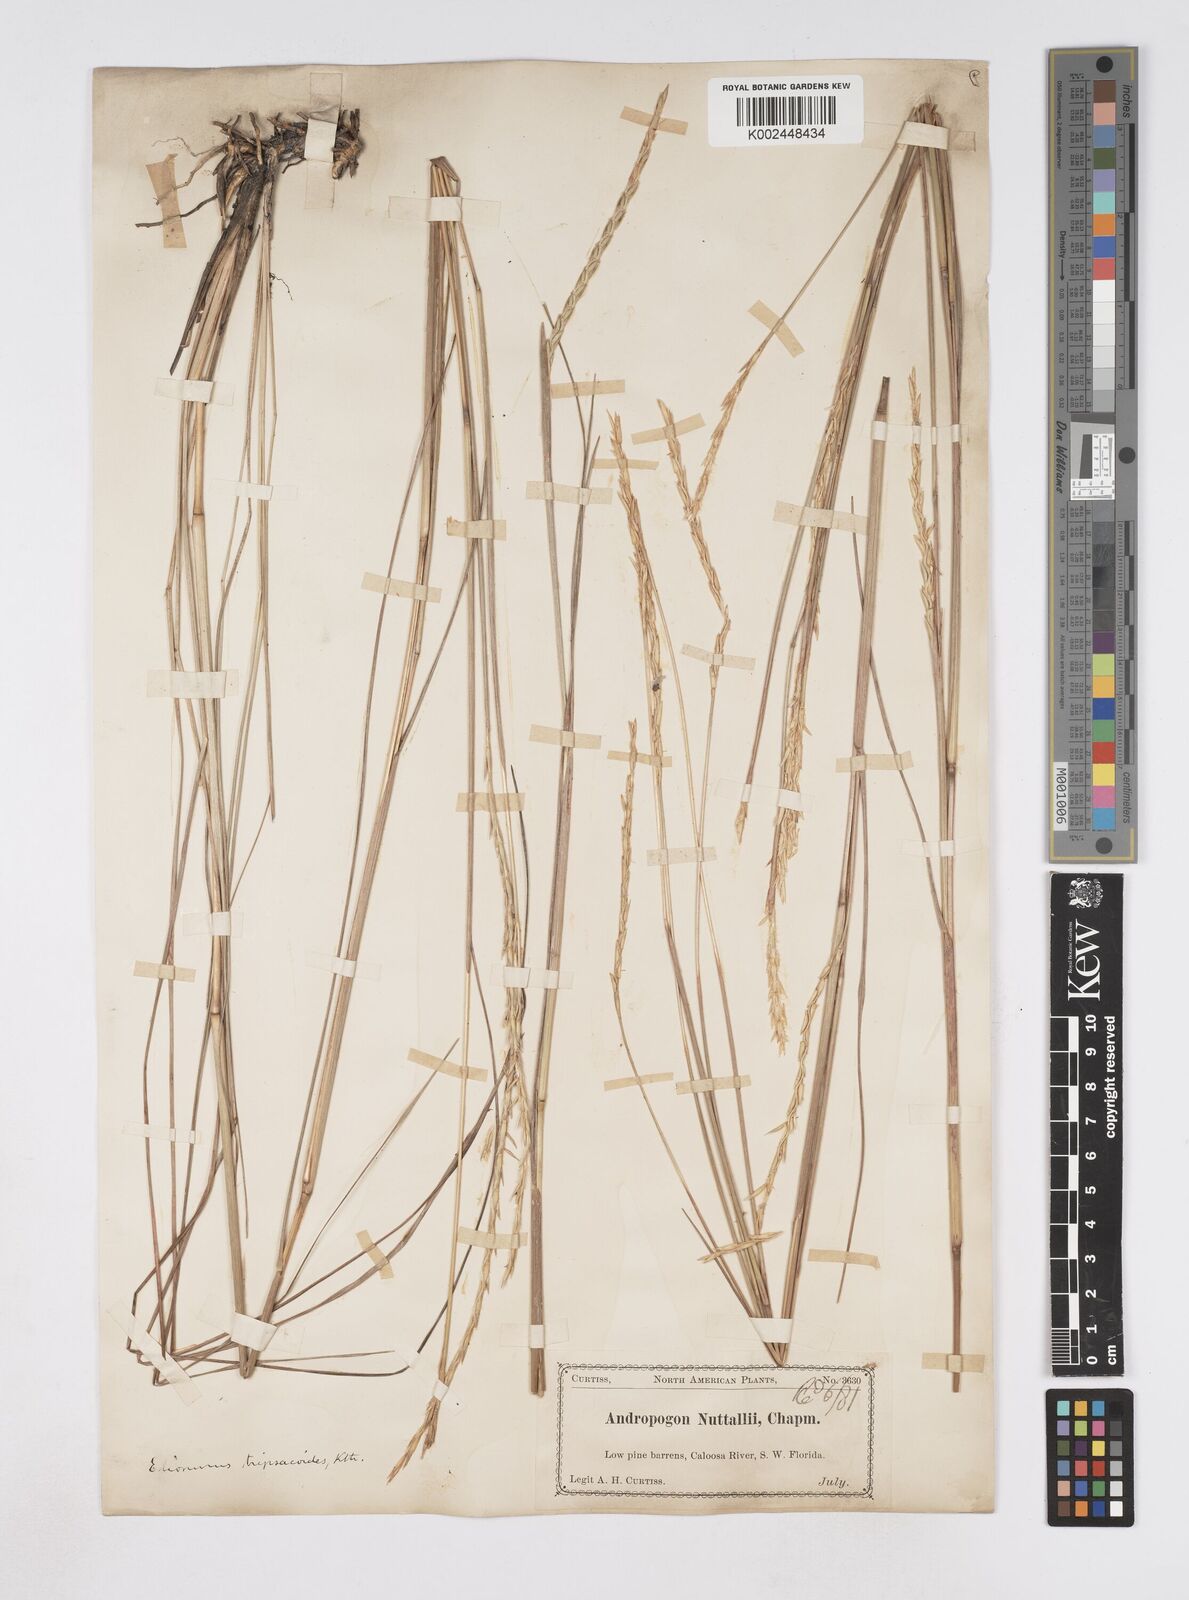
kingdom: Plantae
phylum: Tracheophyta
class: Liliopsida
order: Poales
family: Poaceae
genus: Elionurus
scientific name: Elionurus tripsacoides
